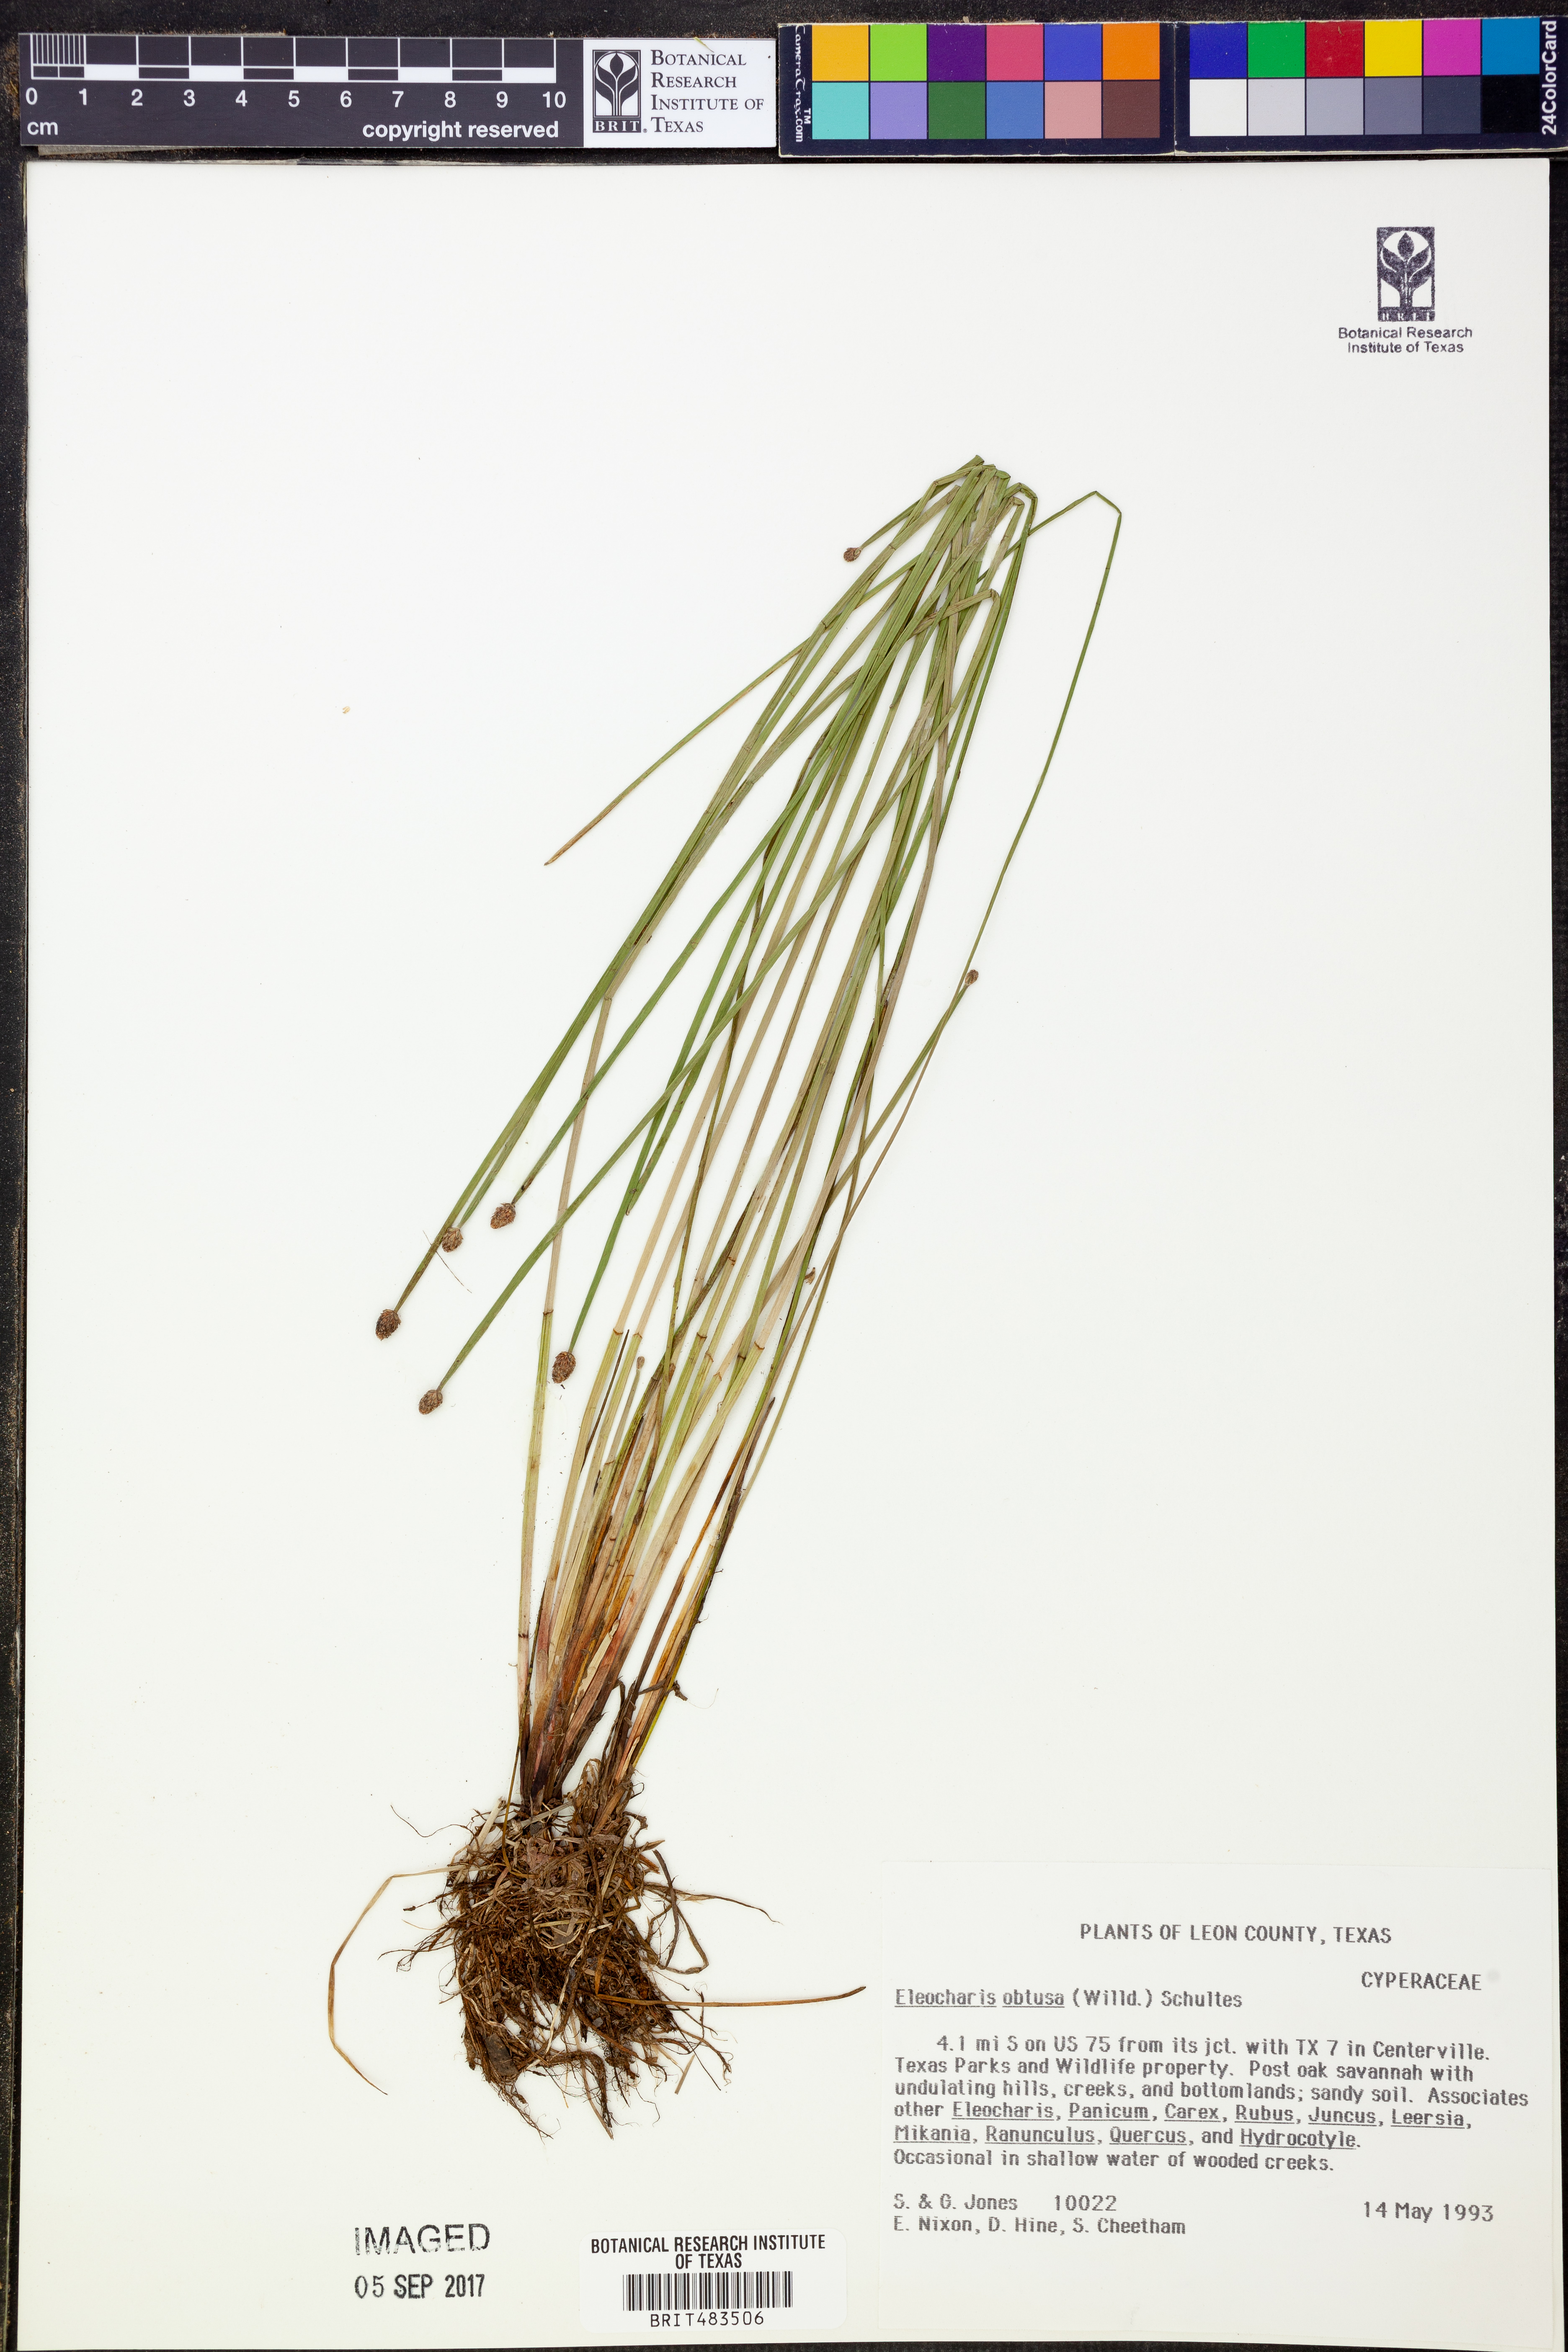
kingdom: Plantae
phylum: Tracheophyta
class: Liliopsida
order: Poales
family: Cyperaceae
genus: Eleocharis
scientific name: Eleocharis obtusa
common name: Blunt spikerush
